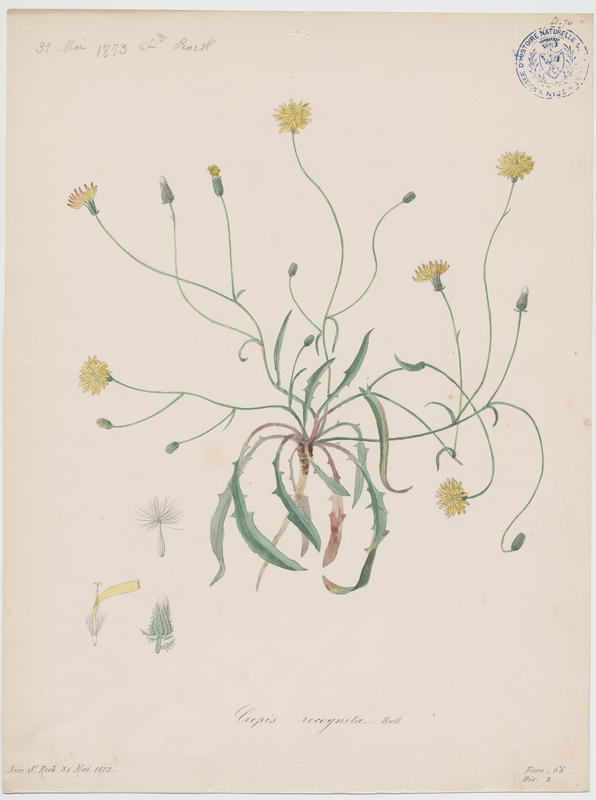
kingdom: Plantae
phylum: Tracheophyta
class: Magnoliopsida
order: Asterales
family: Asteraceae
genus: Crepis
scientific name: Crepis vesicaria
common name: Beaked hawksbeard
